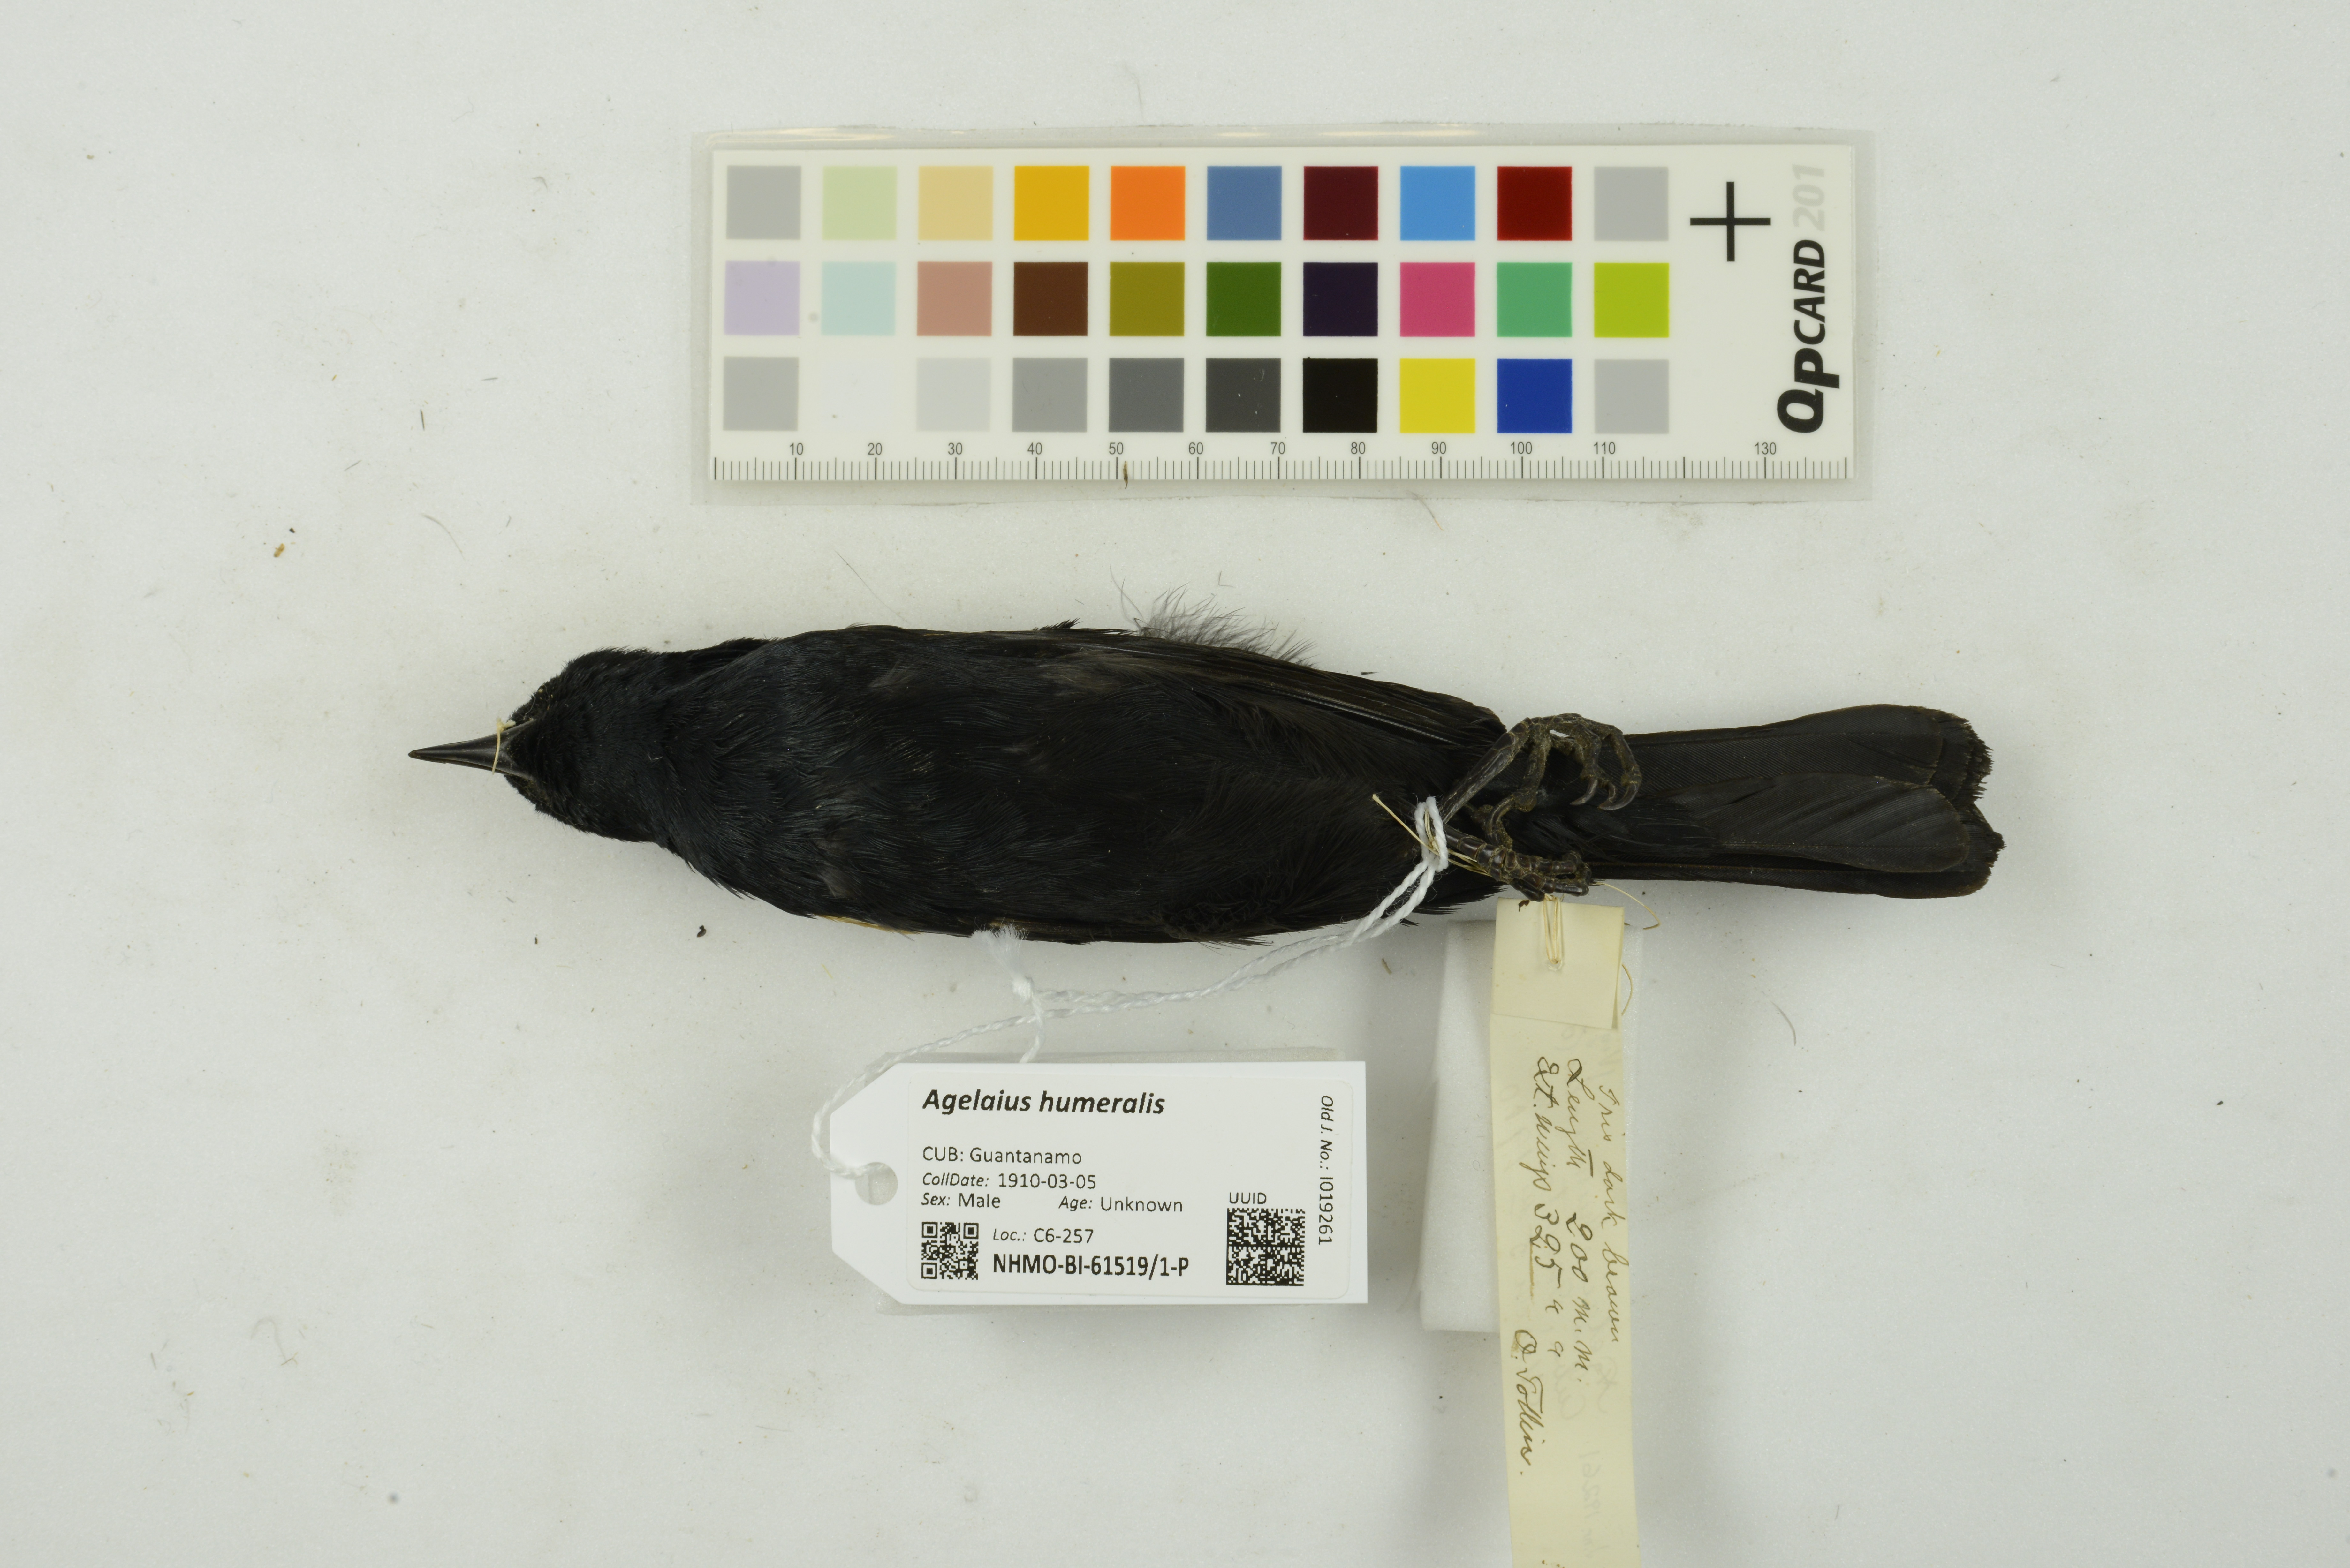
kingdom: Animalia
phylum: Chordata
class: Aves
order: Passeriformes
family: Icteridae
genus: Agelaius
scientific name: Agelaius humeralis
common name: Tawny-shouldered blackbird
